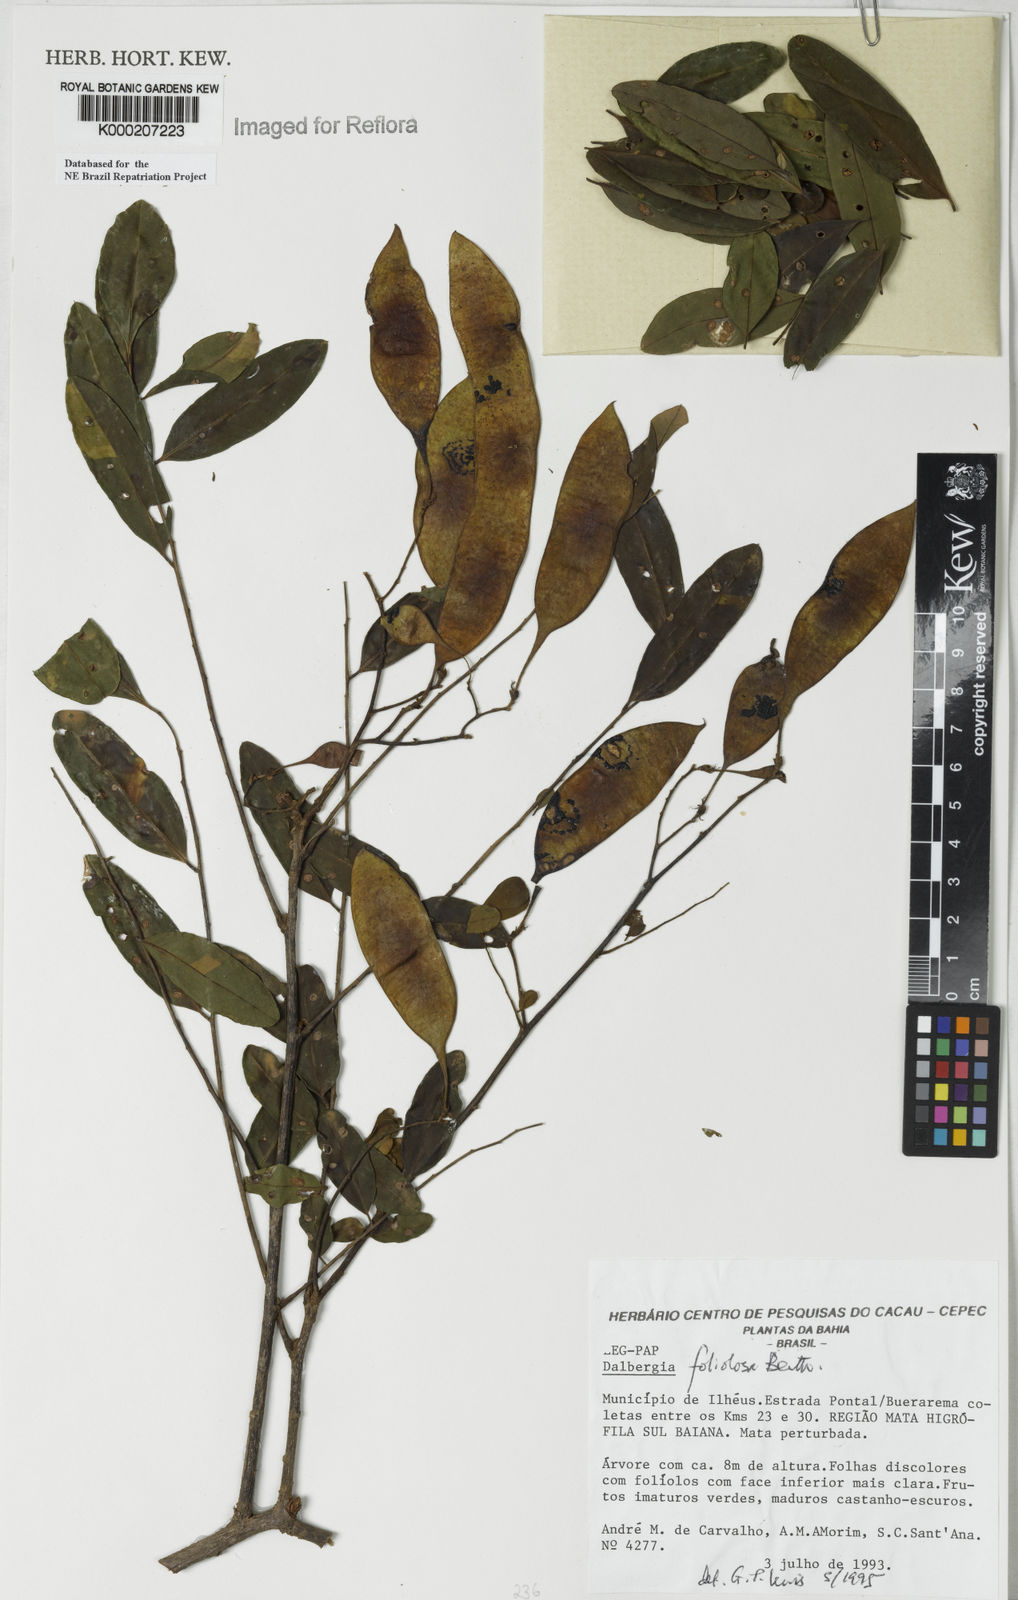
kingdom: Plantae
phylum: Tracheophyta
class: Magnoliopsida
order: Fabales
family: Fabaceae
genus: Dalbergia
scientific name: Dalbergia foliolosa
